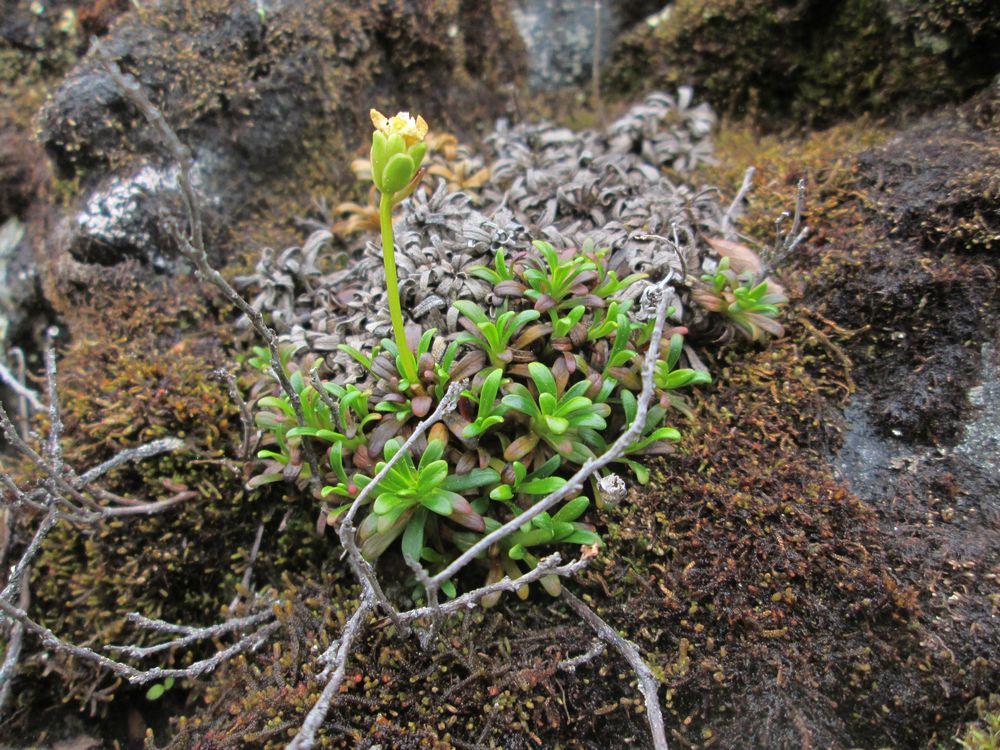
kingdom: Plantae
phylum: Tracheophyta
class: Magnoliopsida
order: Ericales
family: Diapensiaceae
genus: Diapensia
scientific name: Diapensia lapponica
